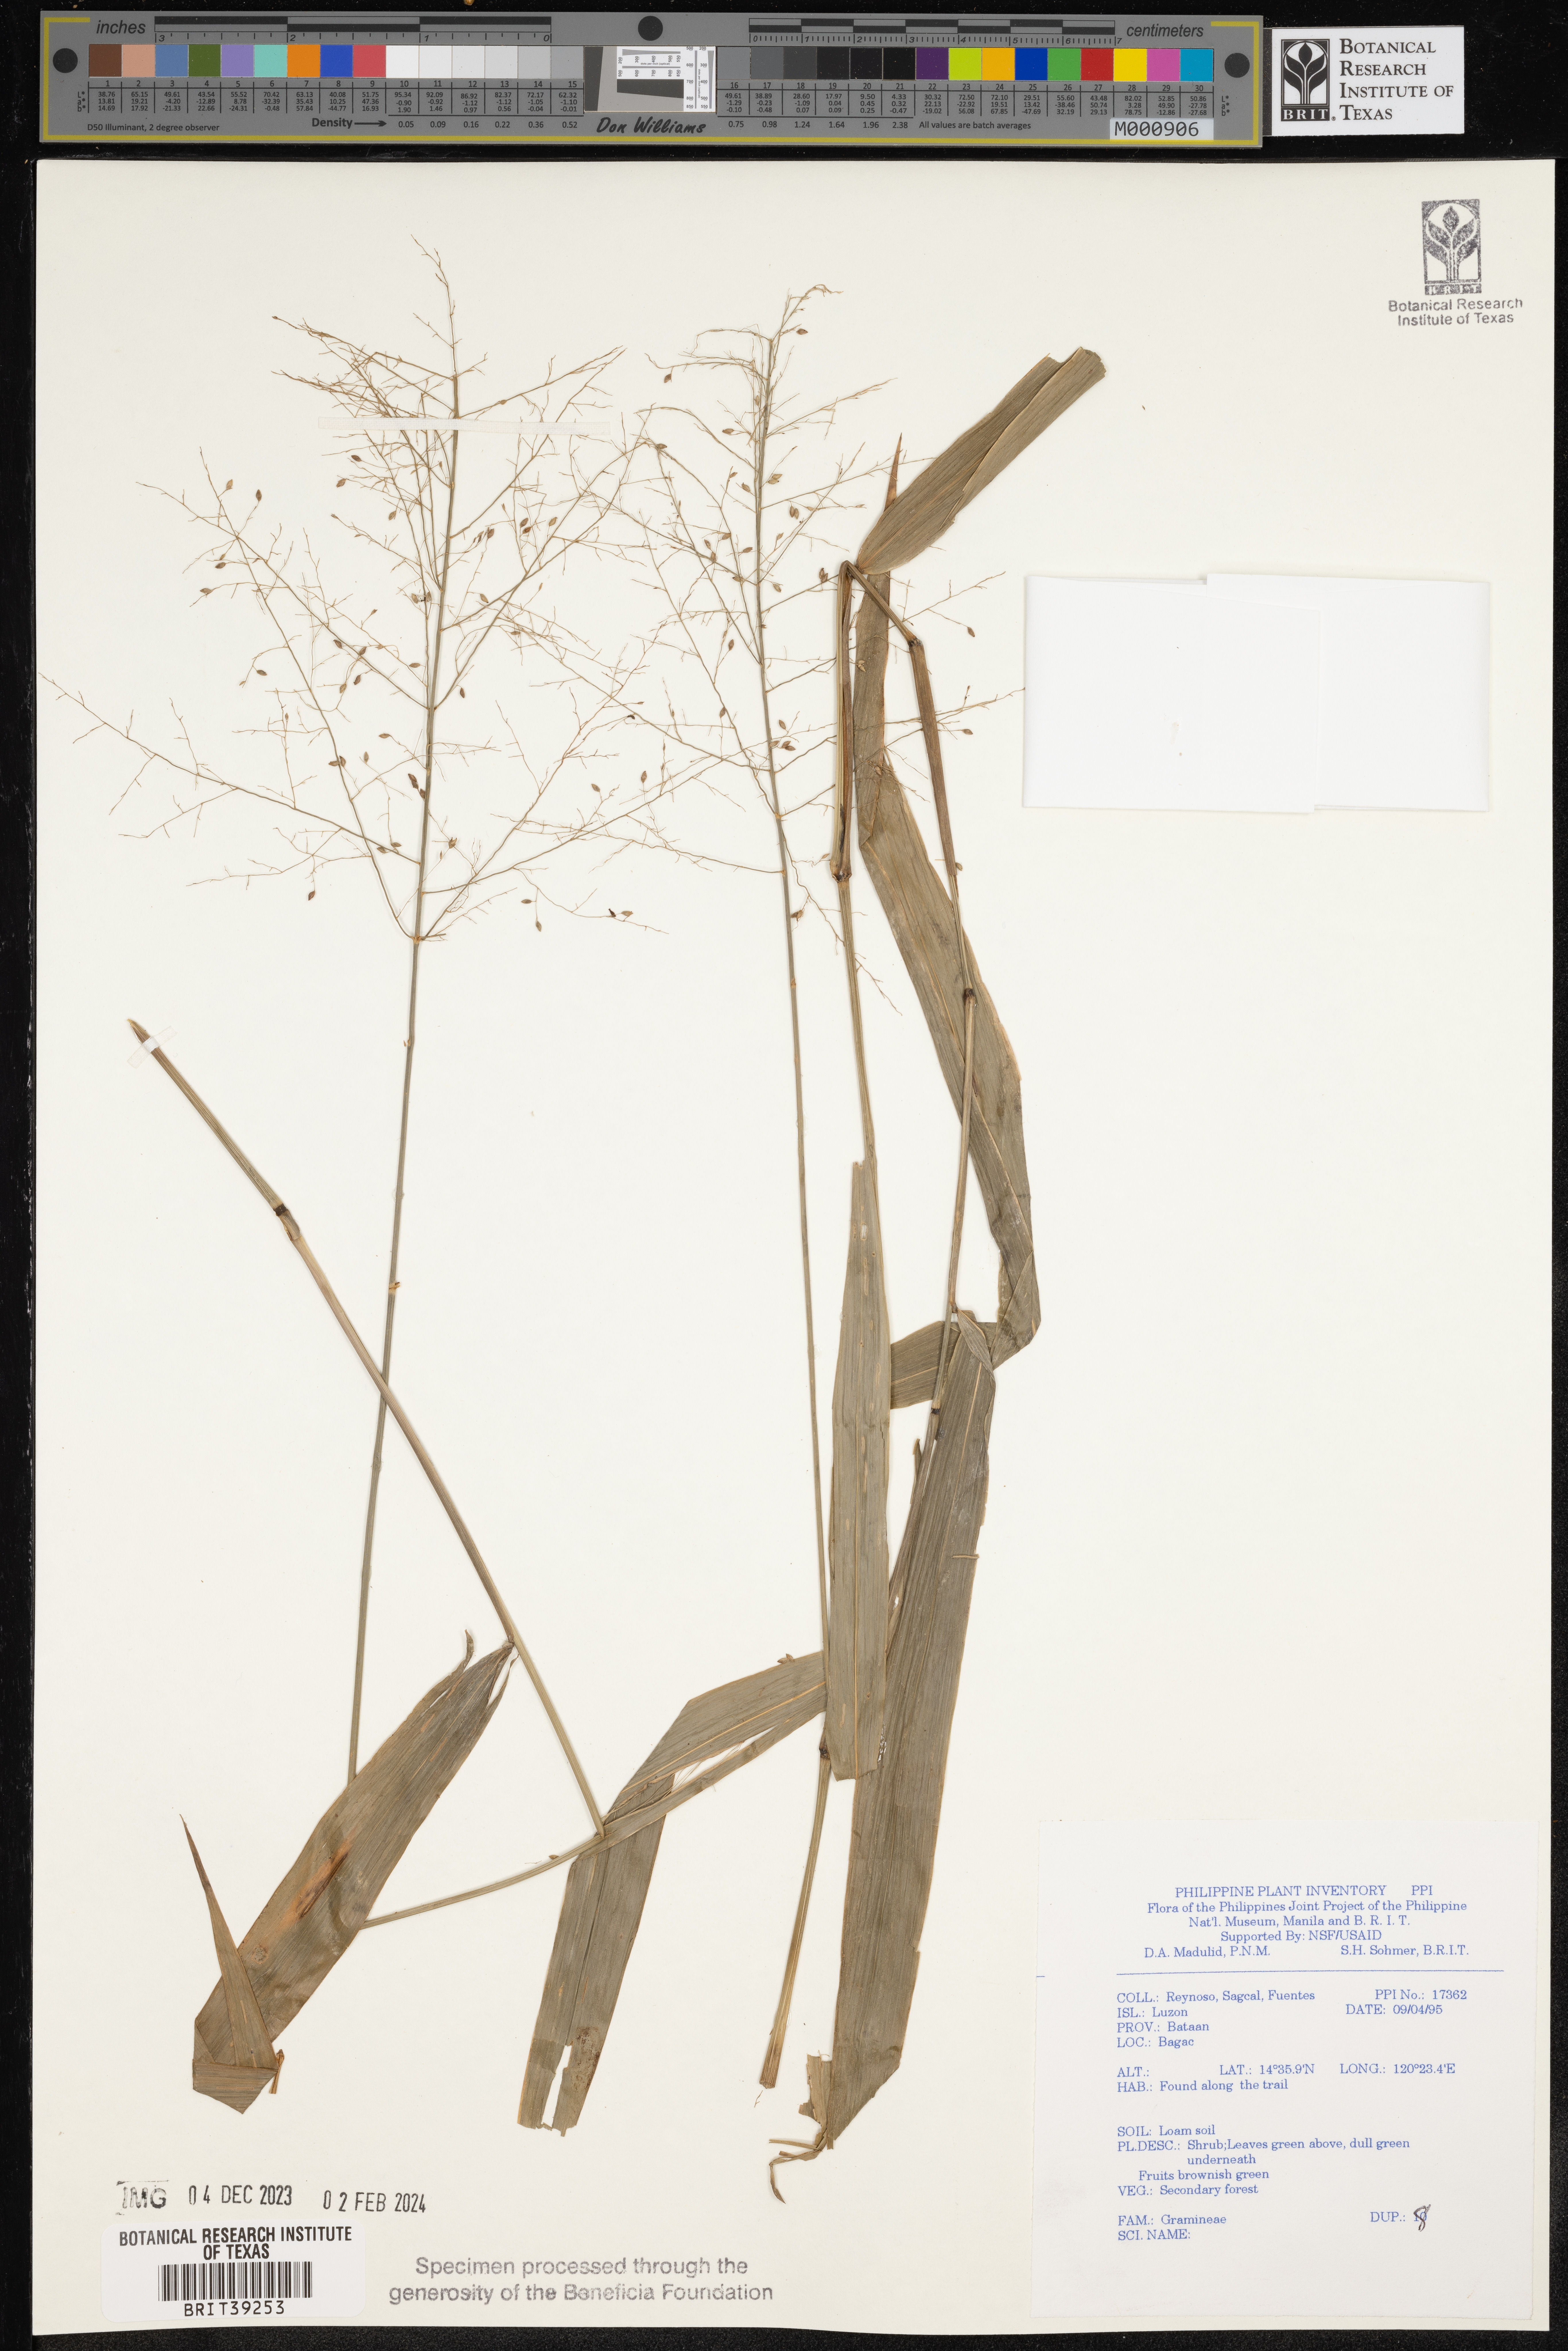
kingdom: Plantae
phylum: Tracheophyta
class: Liliopsida
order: Poales
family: Poaceae
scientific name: Poaceae
